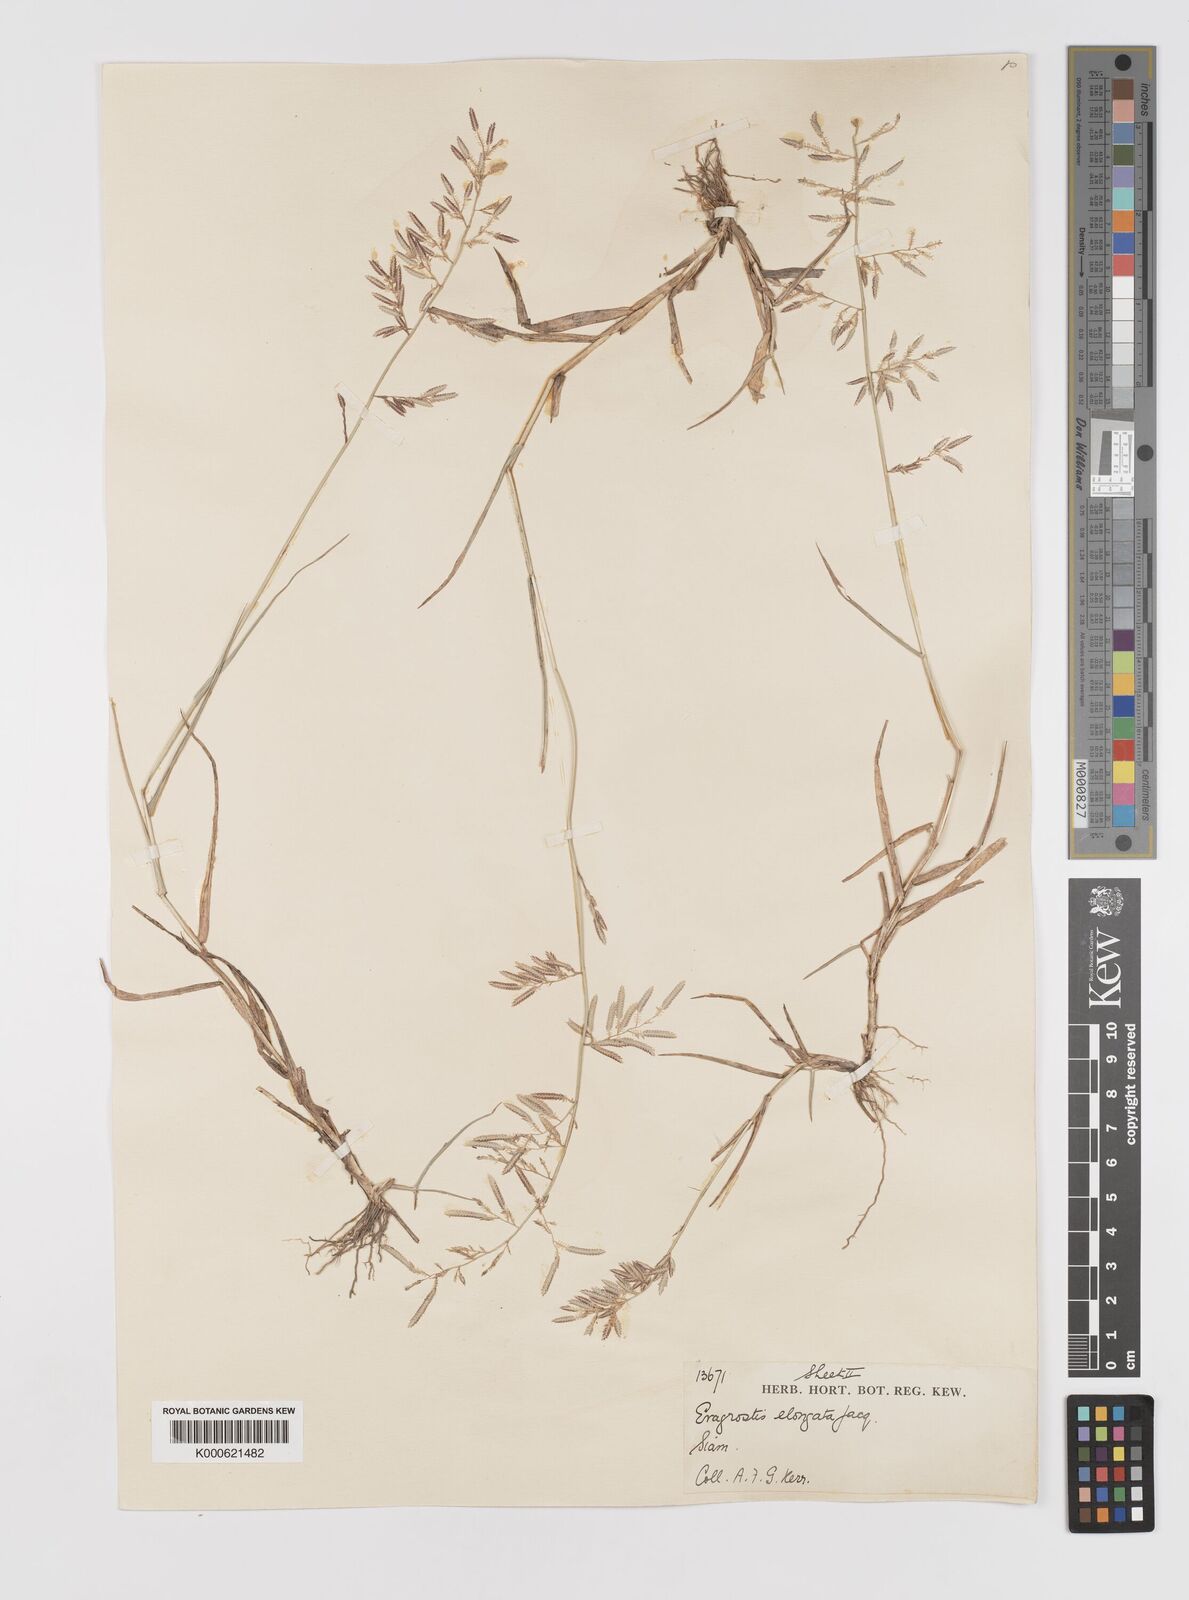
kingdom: Plantae
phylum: Tracheophyta
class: Liliopsida
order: Poales
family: Poaceae
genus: Eragrostis
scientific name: Eragrostis subsecunda
